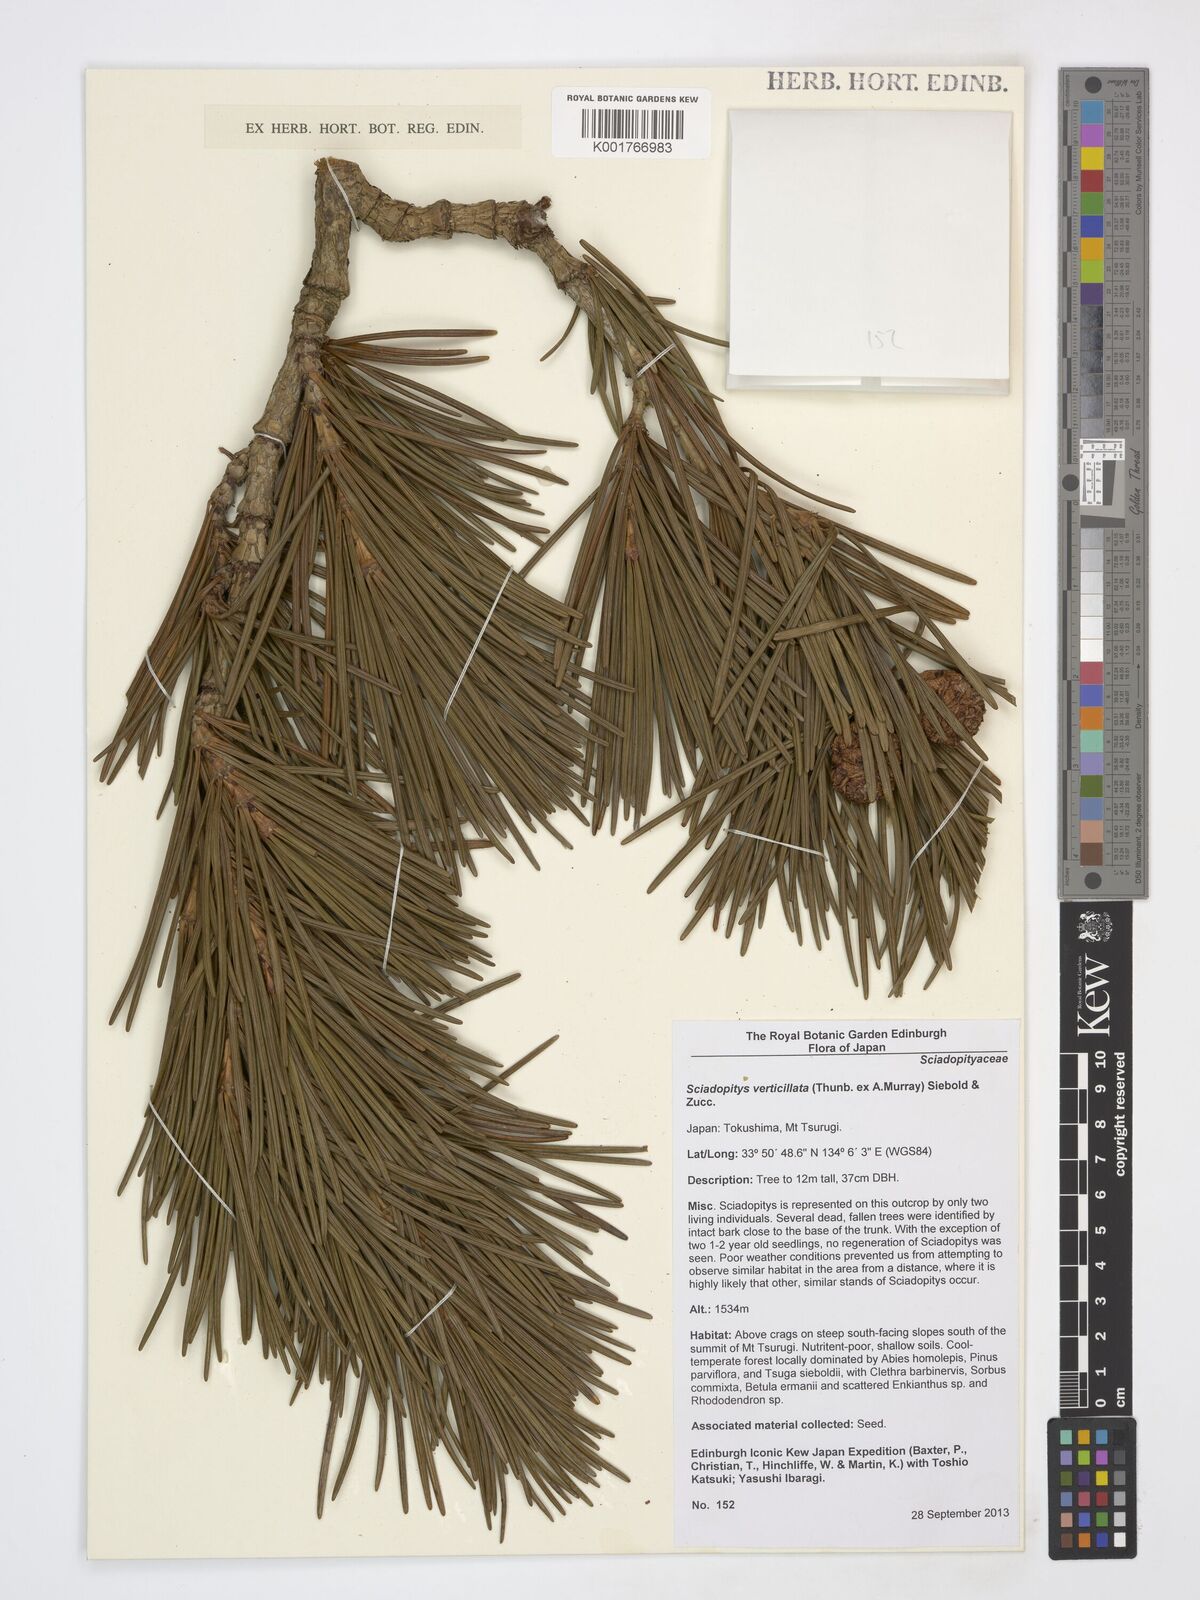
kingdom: Plantae
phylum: Tracheophyta
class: Pinopsida
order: Pinales
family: Sciadopityaceae
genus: Sciadopitys
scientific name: Sciadopitys verticillata
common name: Japanese umbrella pine
